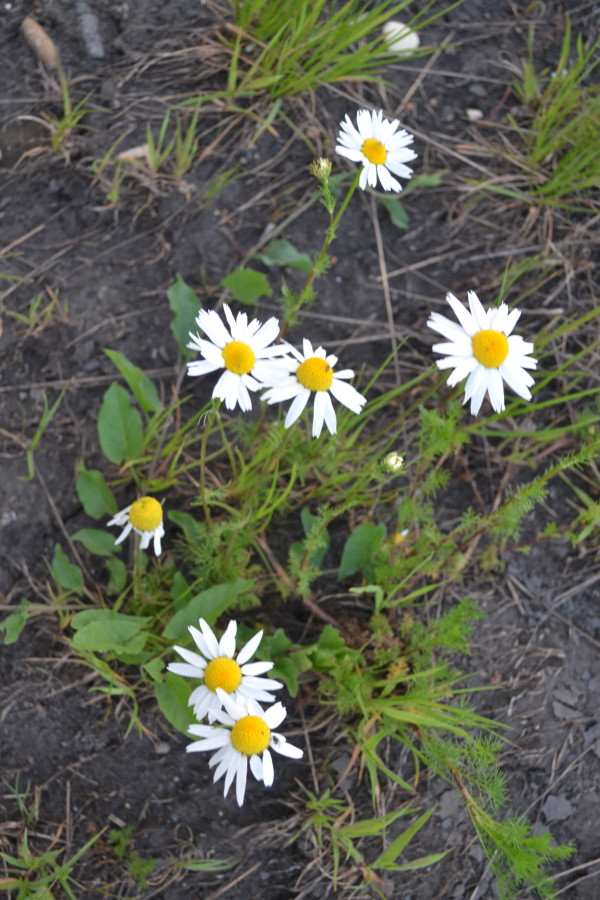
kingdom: Plantae
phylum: Tracheophyta
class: Magnoliopsida
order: Asterales
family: Asteraceae
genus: Tripleurospermum
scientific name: Tripleurospermum inodorum
